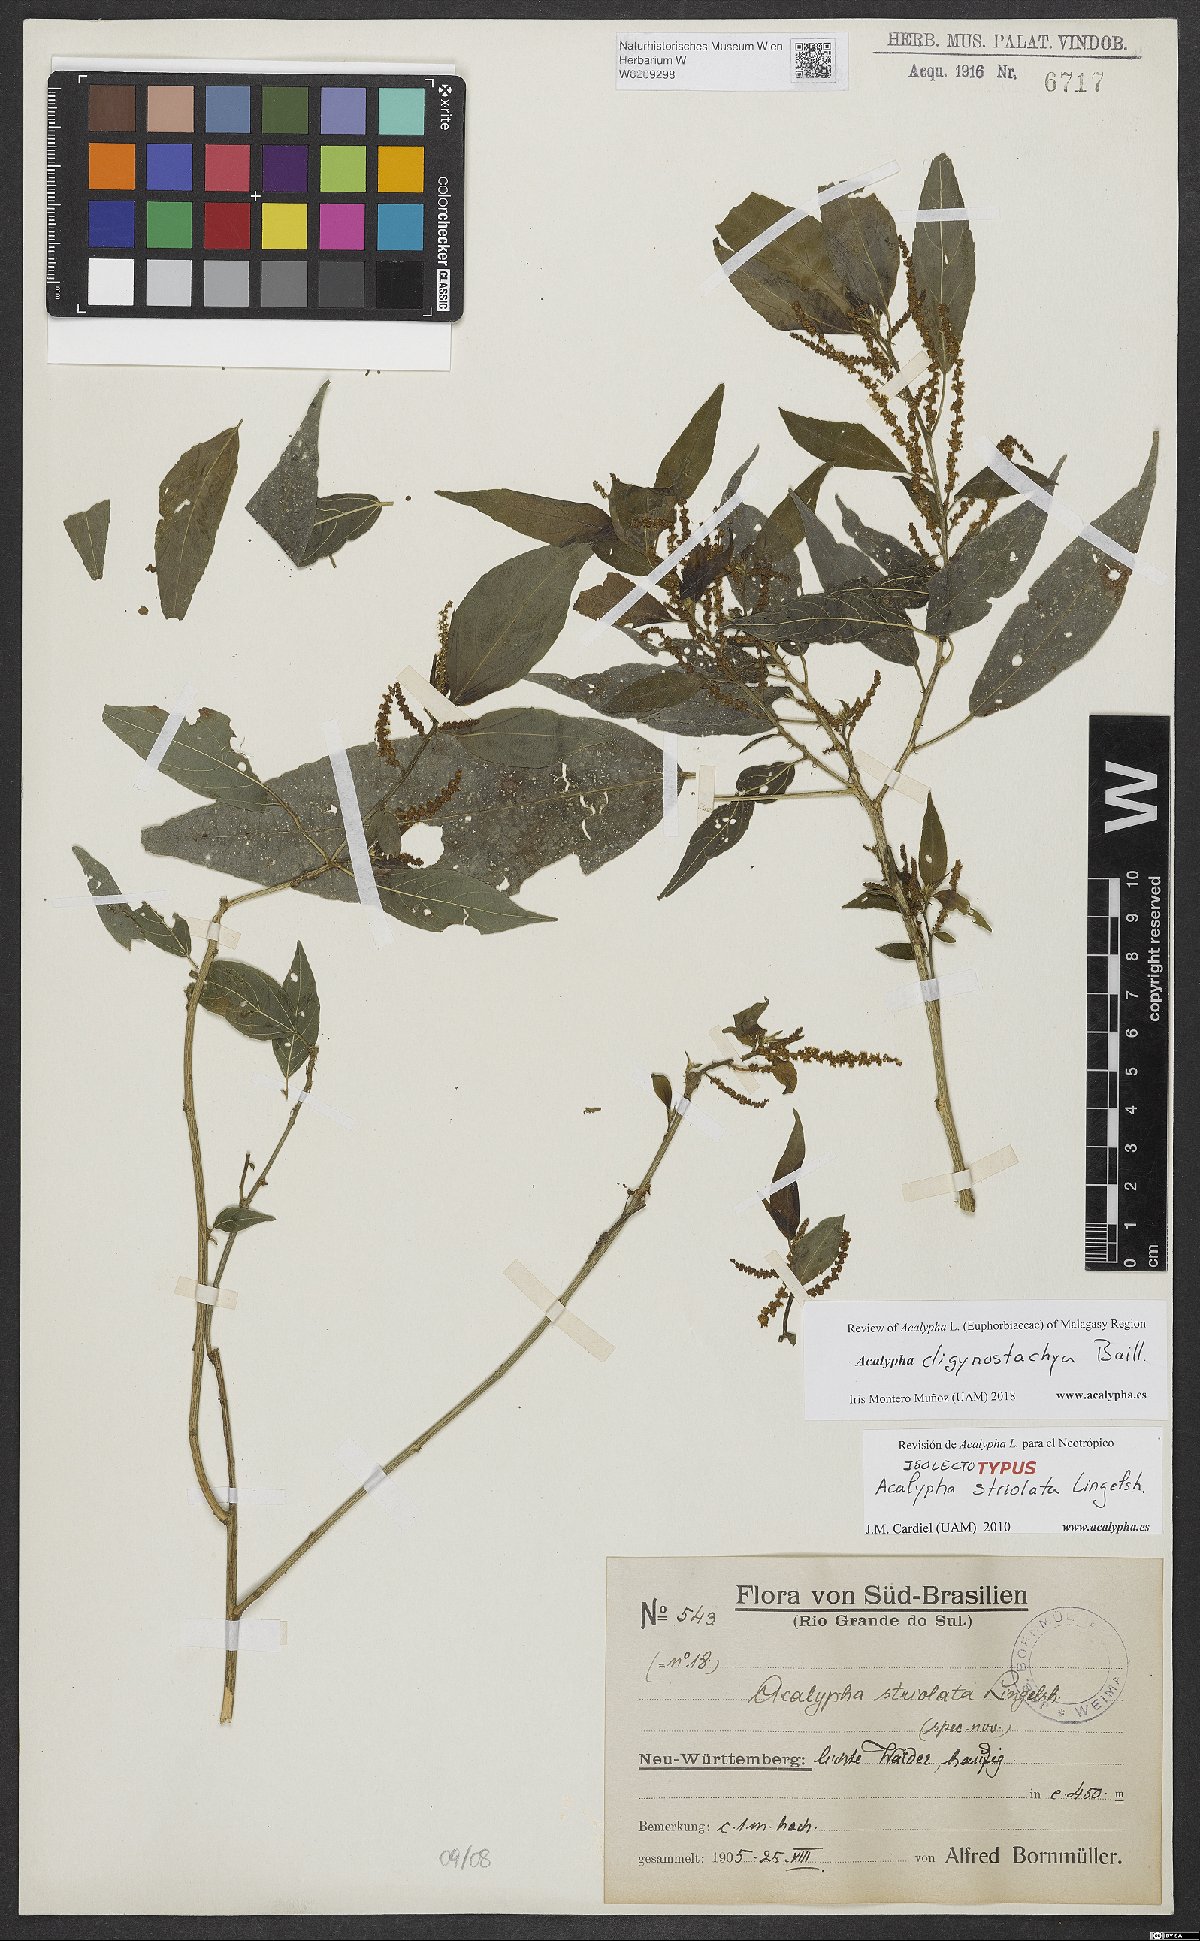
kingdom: Plantae
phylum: Tracheophyta
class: Magnoliopsida
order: Malpighiales
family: Euphorbiaceae
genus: Acalypha
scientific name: Acalypha striolata
